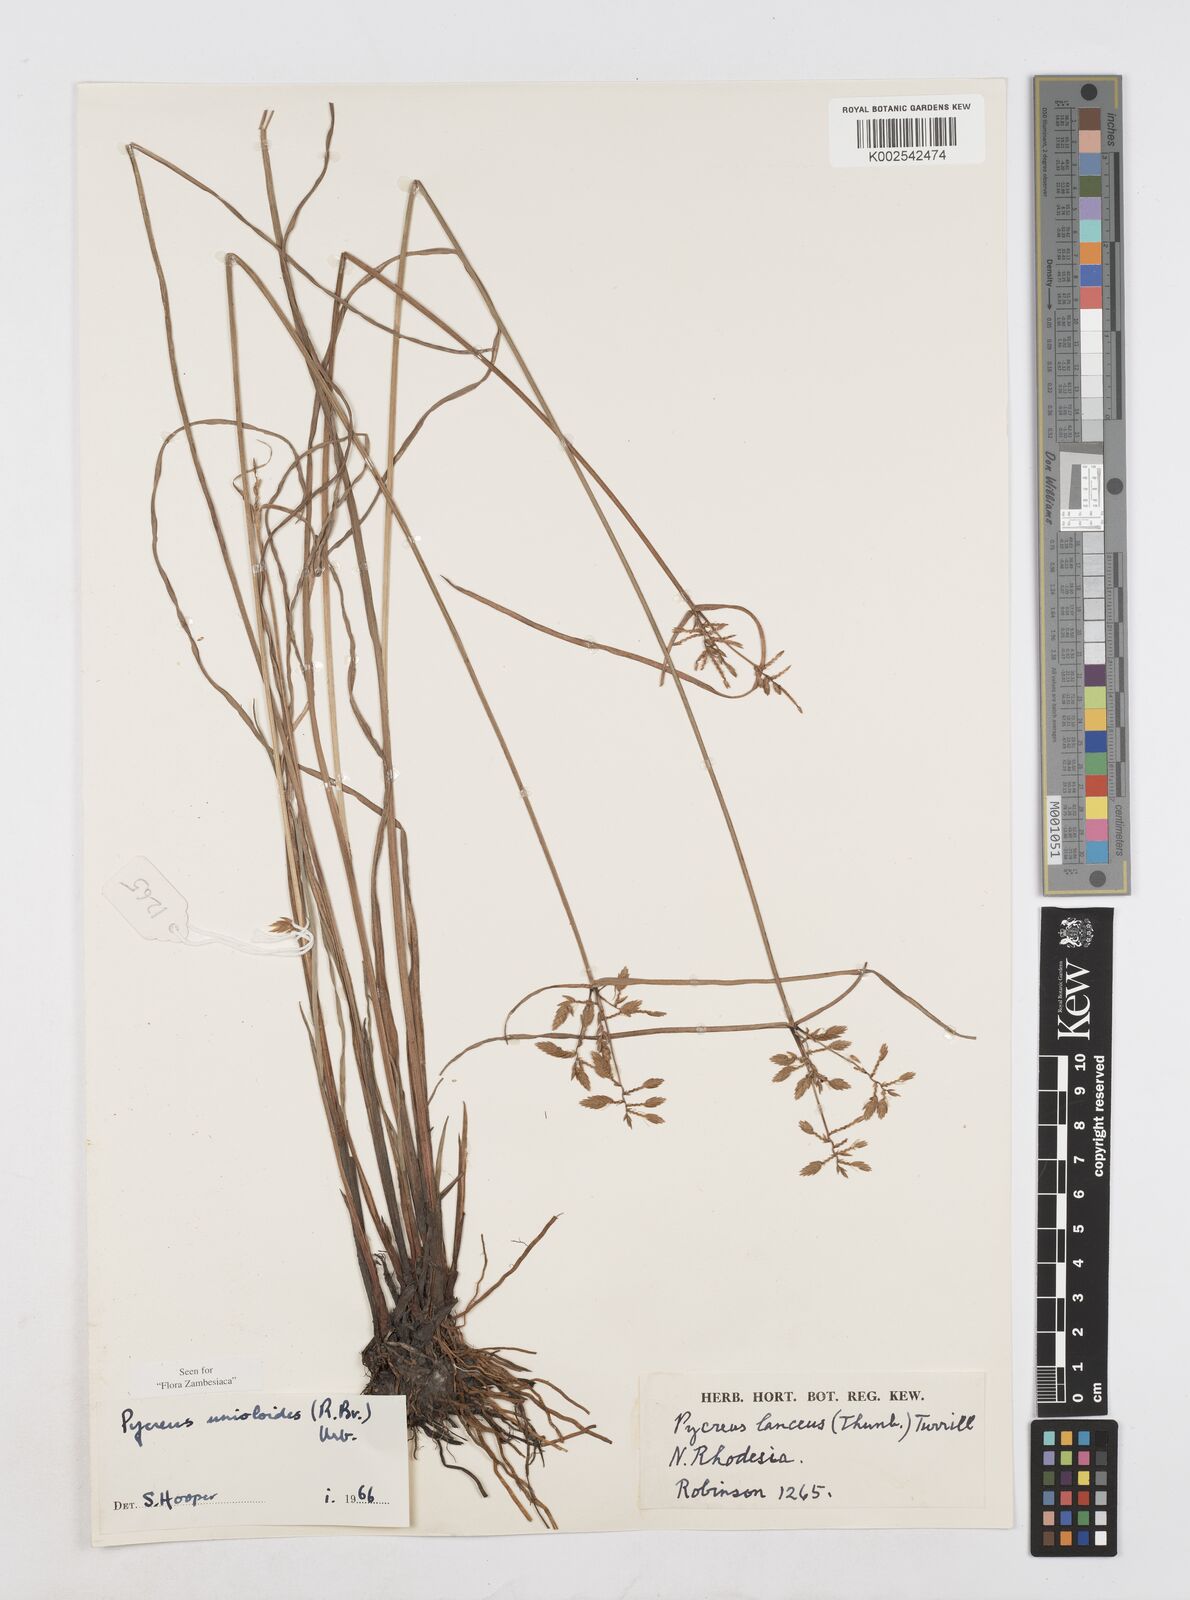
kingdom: Plantae
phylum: Tracheophyta
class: Liliopsida
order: Poales
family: Cyperaceae
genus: Cyperus
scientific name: Cyperus unioloides
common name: Uniola flatsedge
